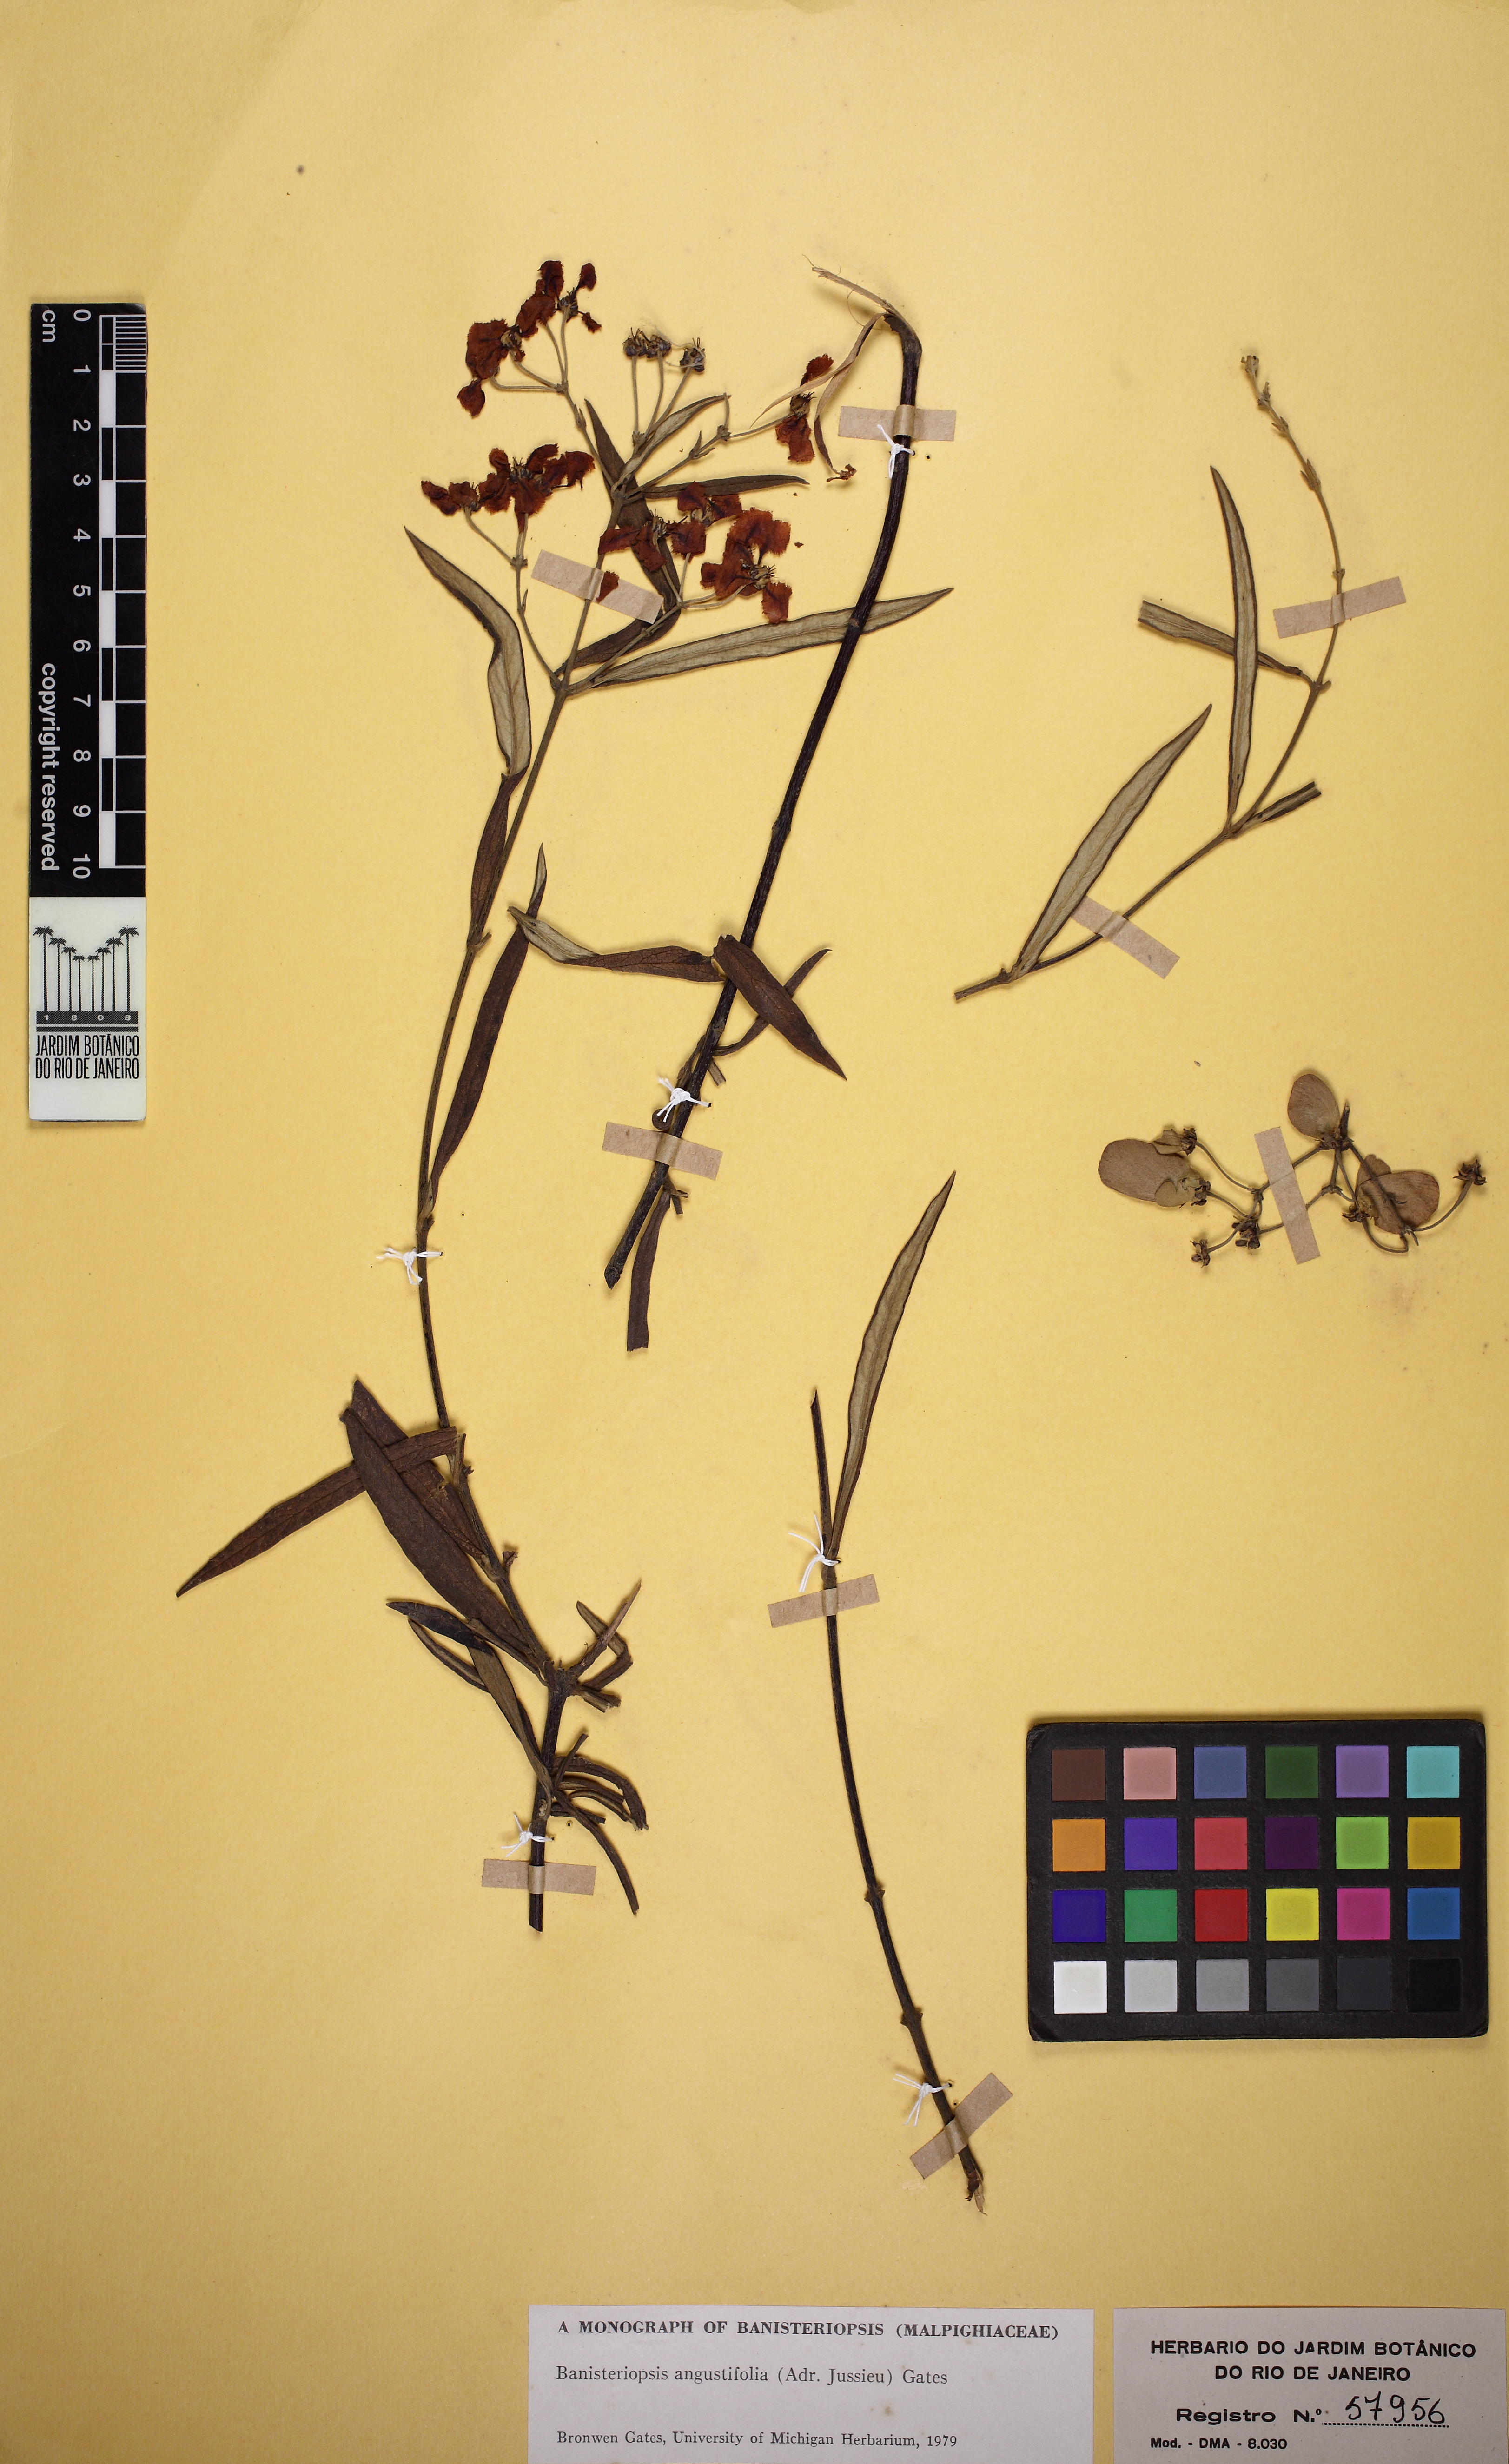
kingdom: Plantae
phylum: Tracheophyta
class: Magnoliopsida
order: Malpighiales
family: Malpighiaceae
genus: Banisteriopsis
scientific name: Banisteriopsis angustifolia
